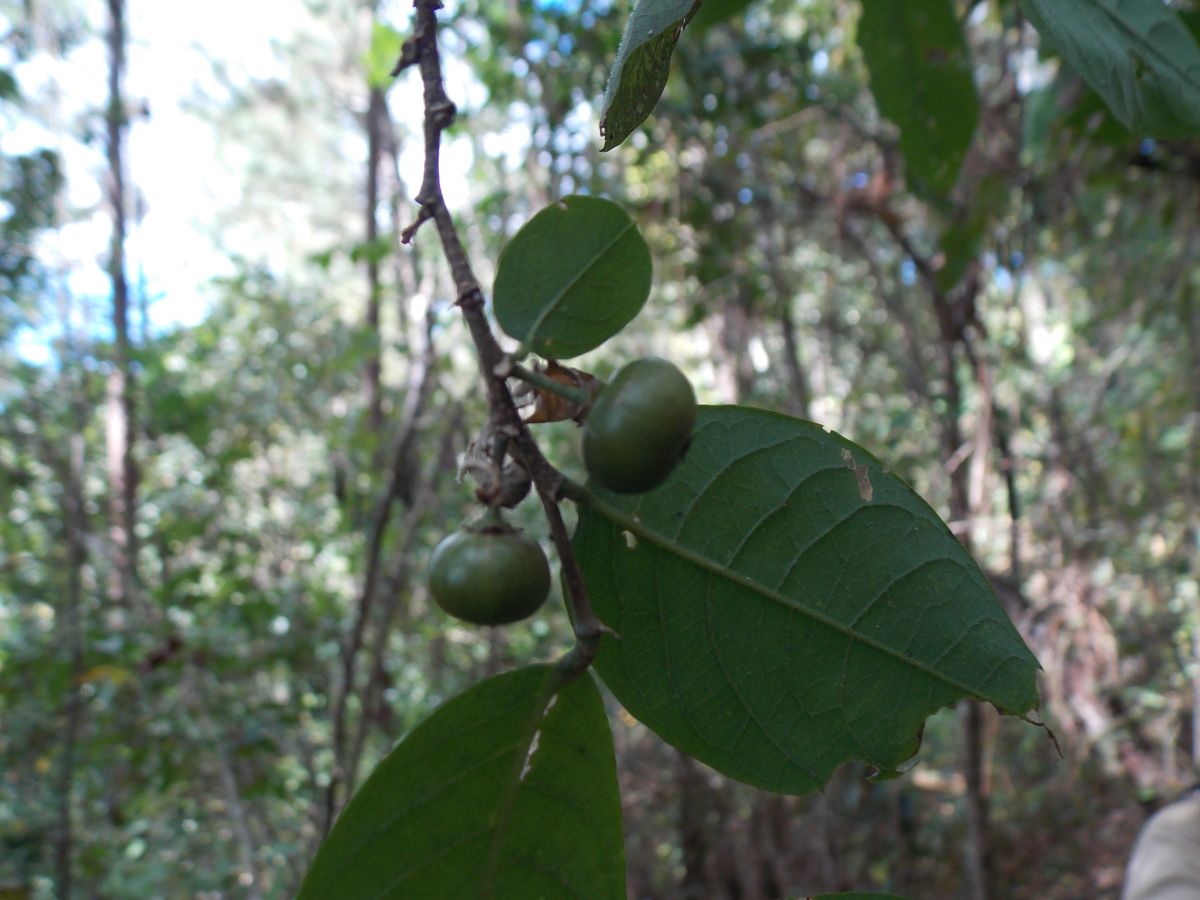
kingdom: Plantae
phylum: Tracheophyta
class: Magnoliopsida
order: Malpighiales
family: Phyllanthaceae
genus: Margaritaria
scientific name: Margaritaria nobilis
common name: Goose berry
